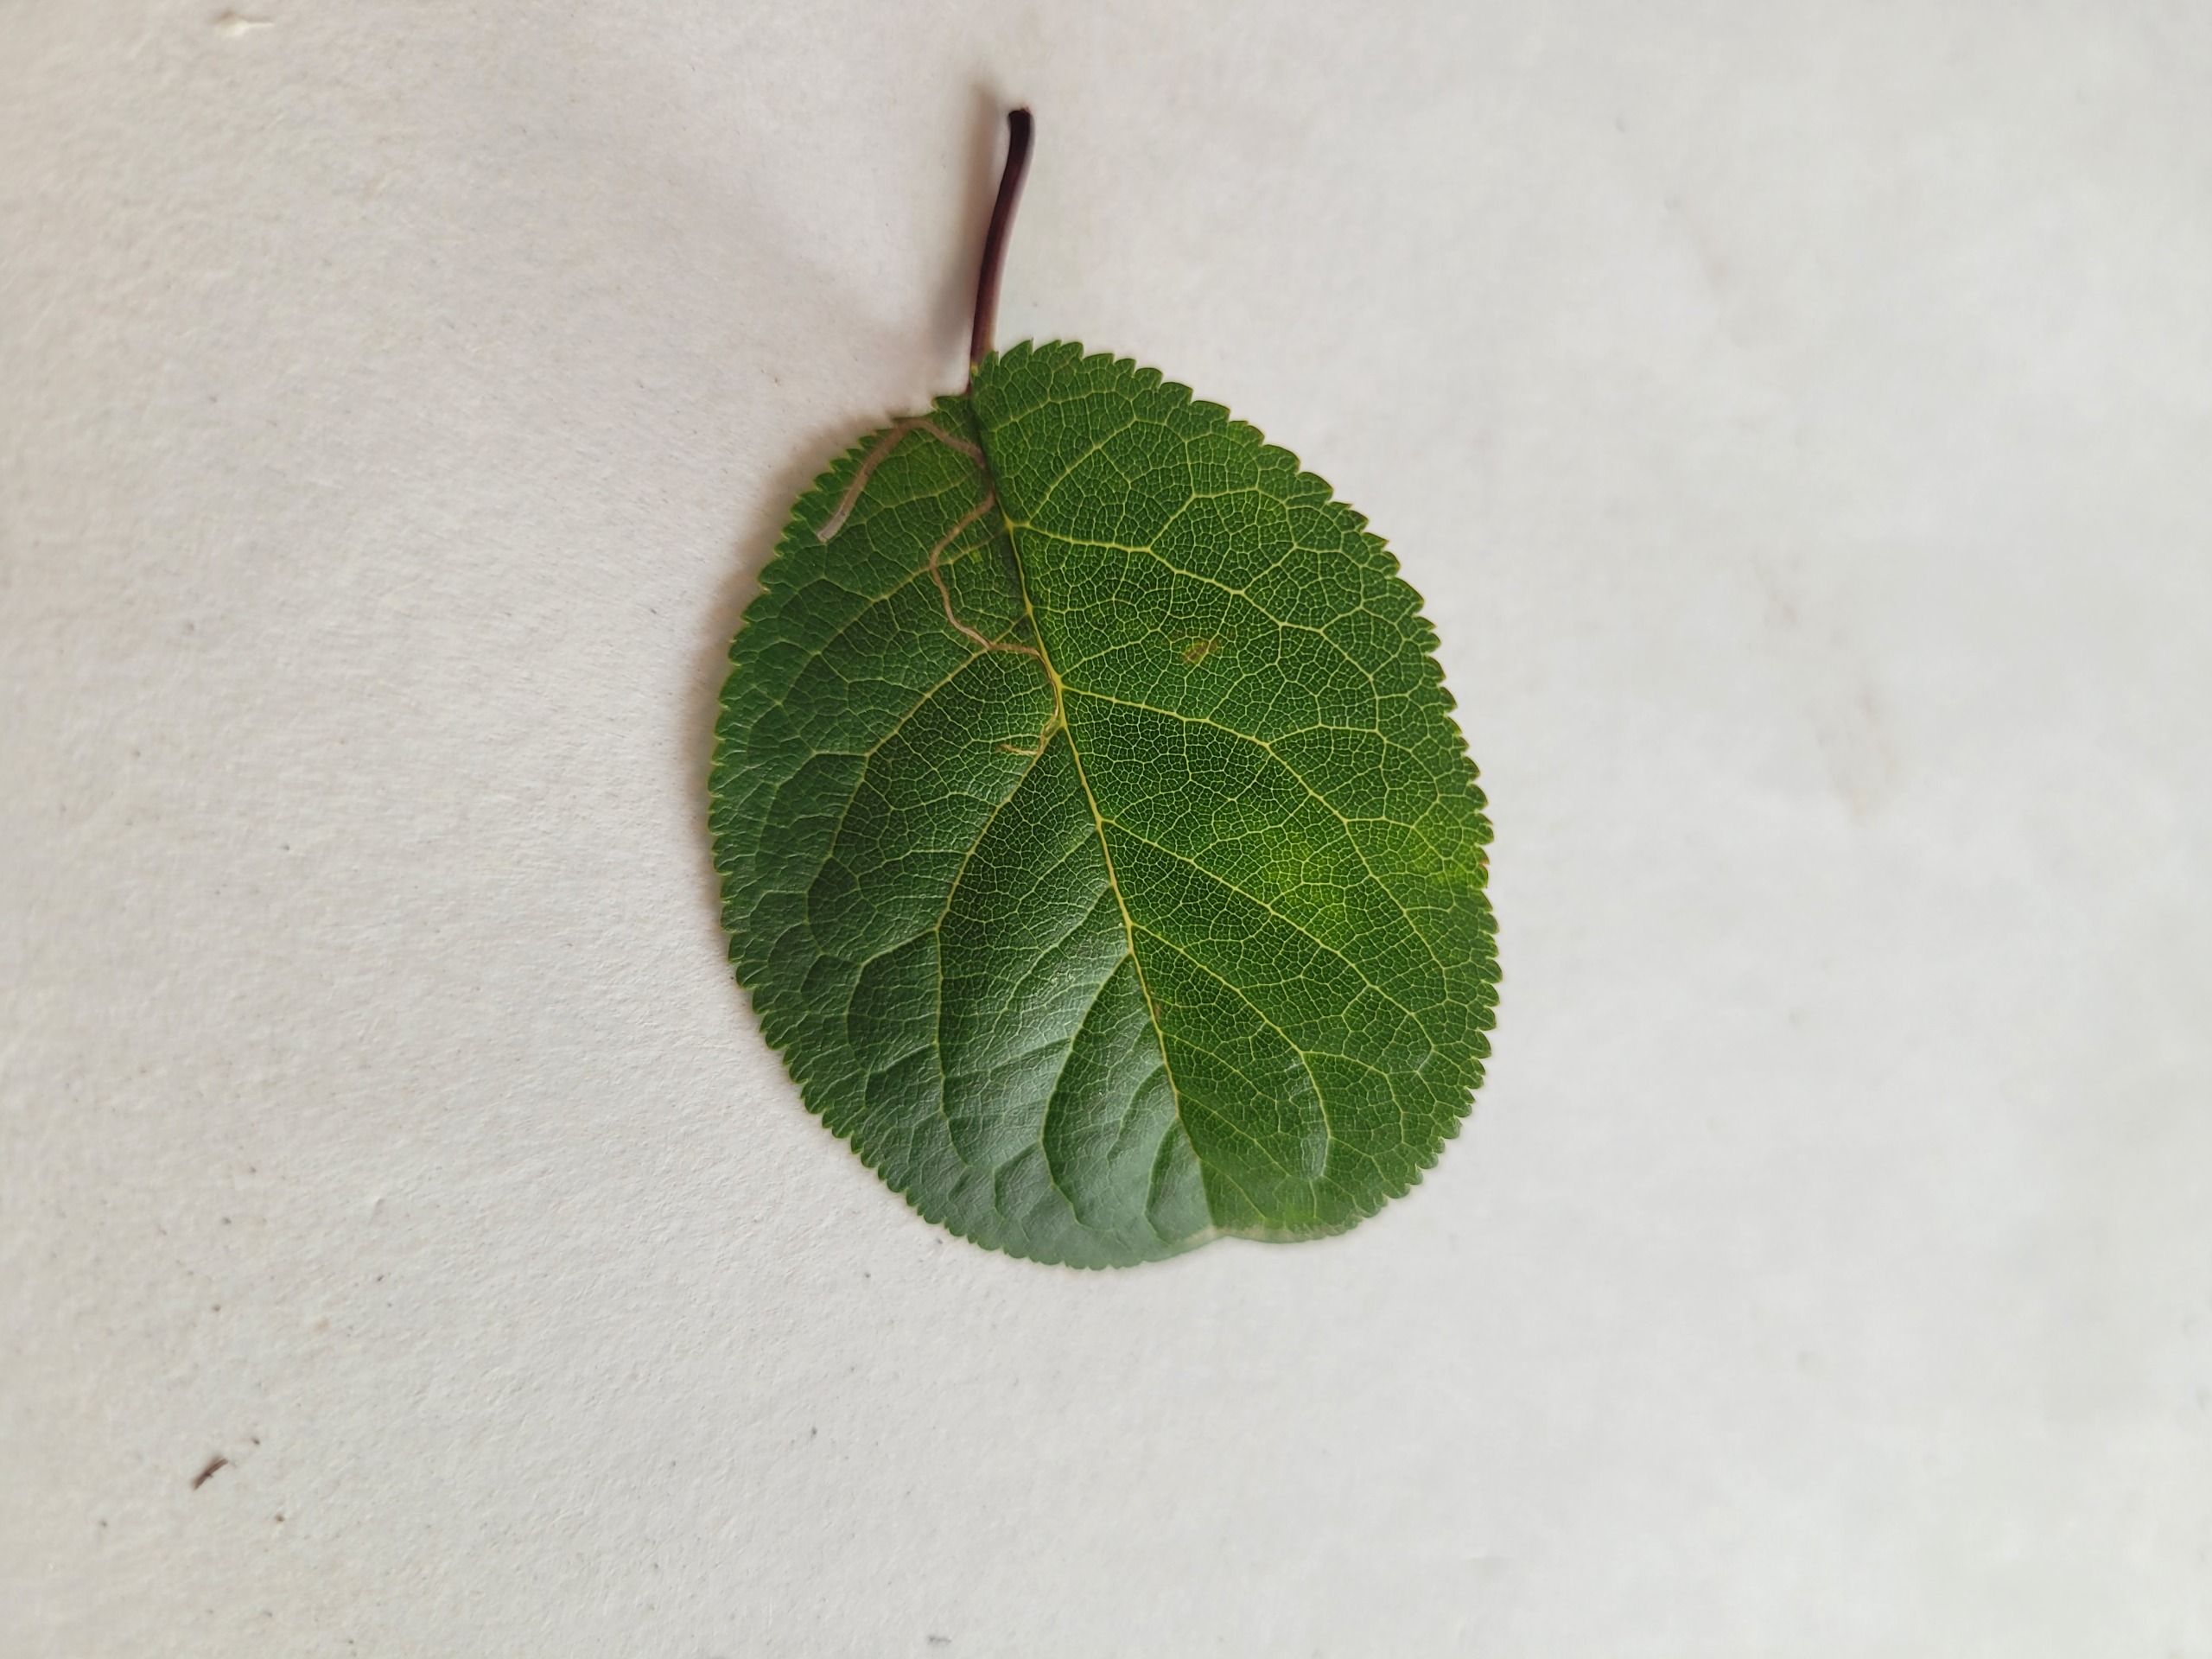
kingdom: Plantae
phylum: Tracheophyta
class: Magnoliopsida
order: Rosales
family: Rosaceae
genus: Prunus
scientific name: Prunus cerasifera
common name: Mirabel
